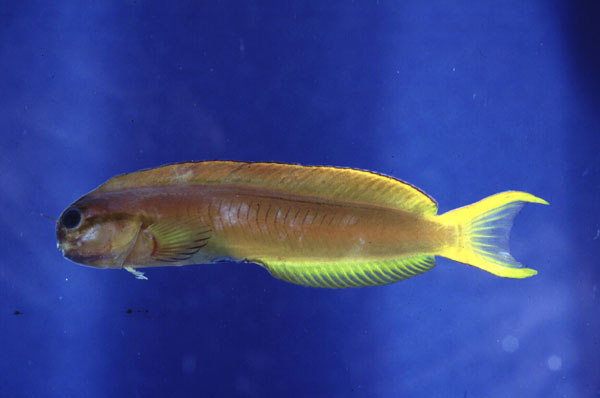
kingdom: Animalia
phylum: Chordata
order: Perciformes
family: Blenniidae
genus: Ecsenius
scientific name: Ecsenius midas
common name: Golden blenny
